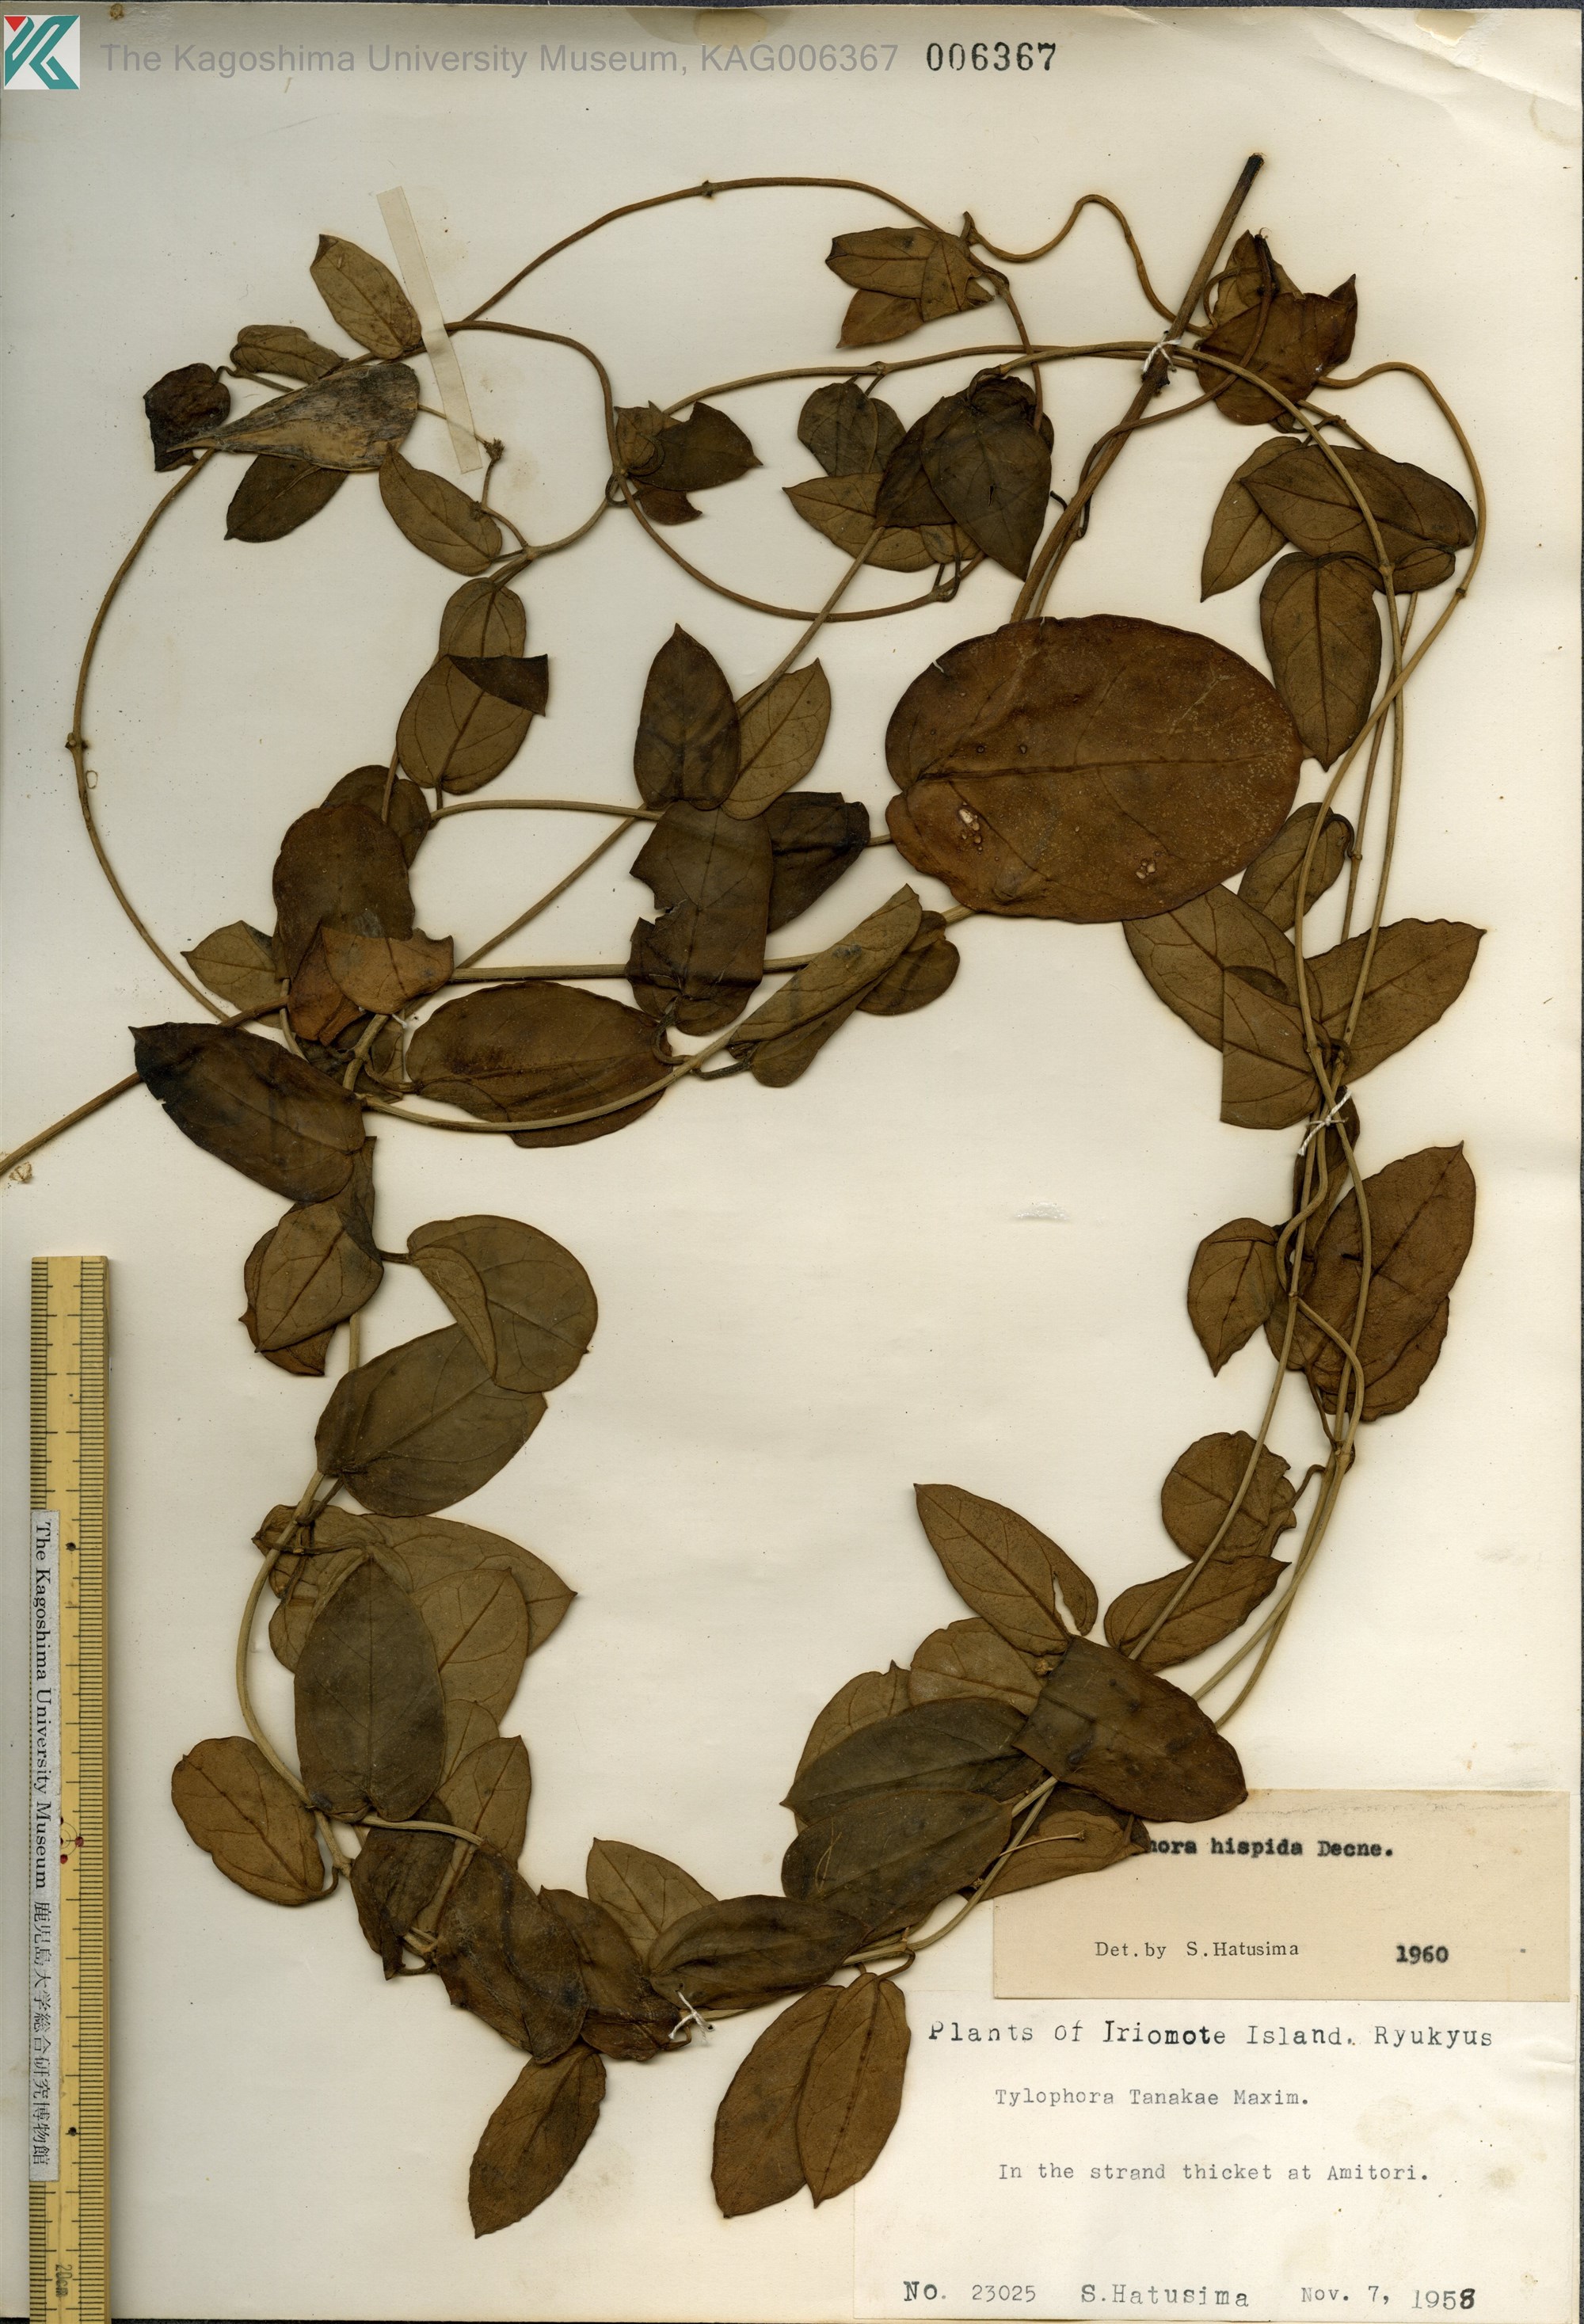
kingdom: Plantae
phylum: Tracheophyta
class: Magnoliopsida
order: Gentianales
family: Apocynaceae
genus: Vincetoxicum
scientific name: Vincetoxicum hirsutum
